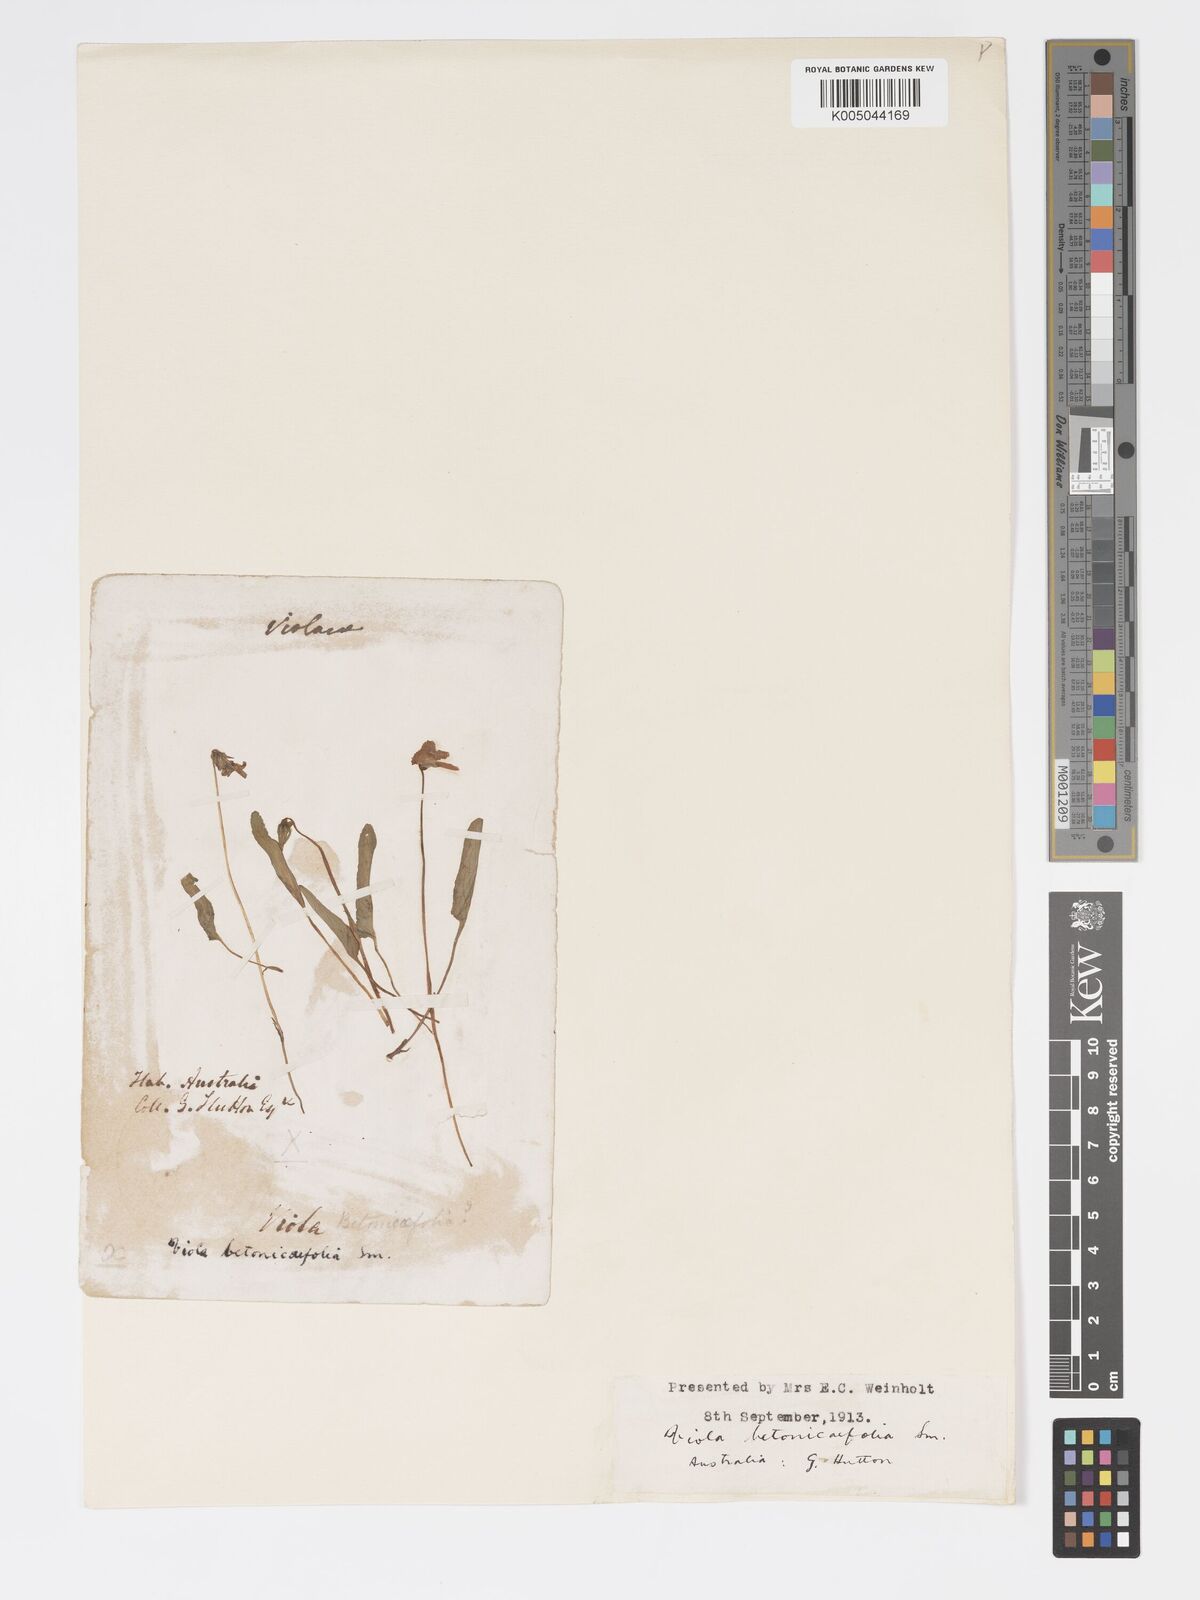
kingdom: Plantae
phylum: Tracheophyta
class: Magnoliopsida
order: Malpighiales
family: Violaceae
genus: Viola
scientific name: Viola betonicifolia
